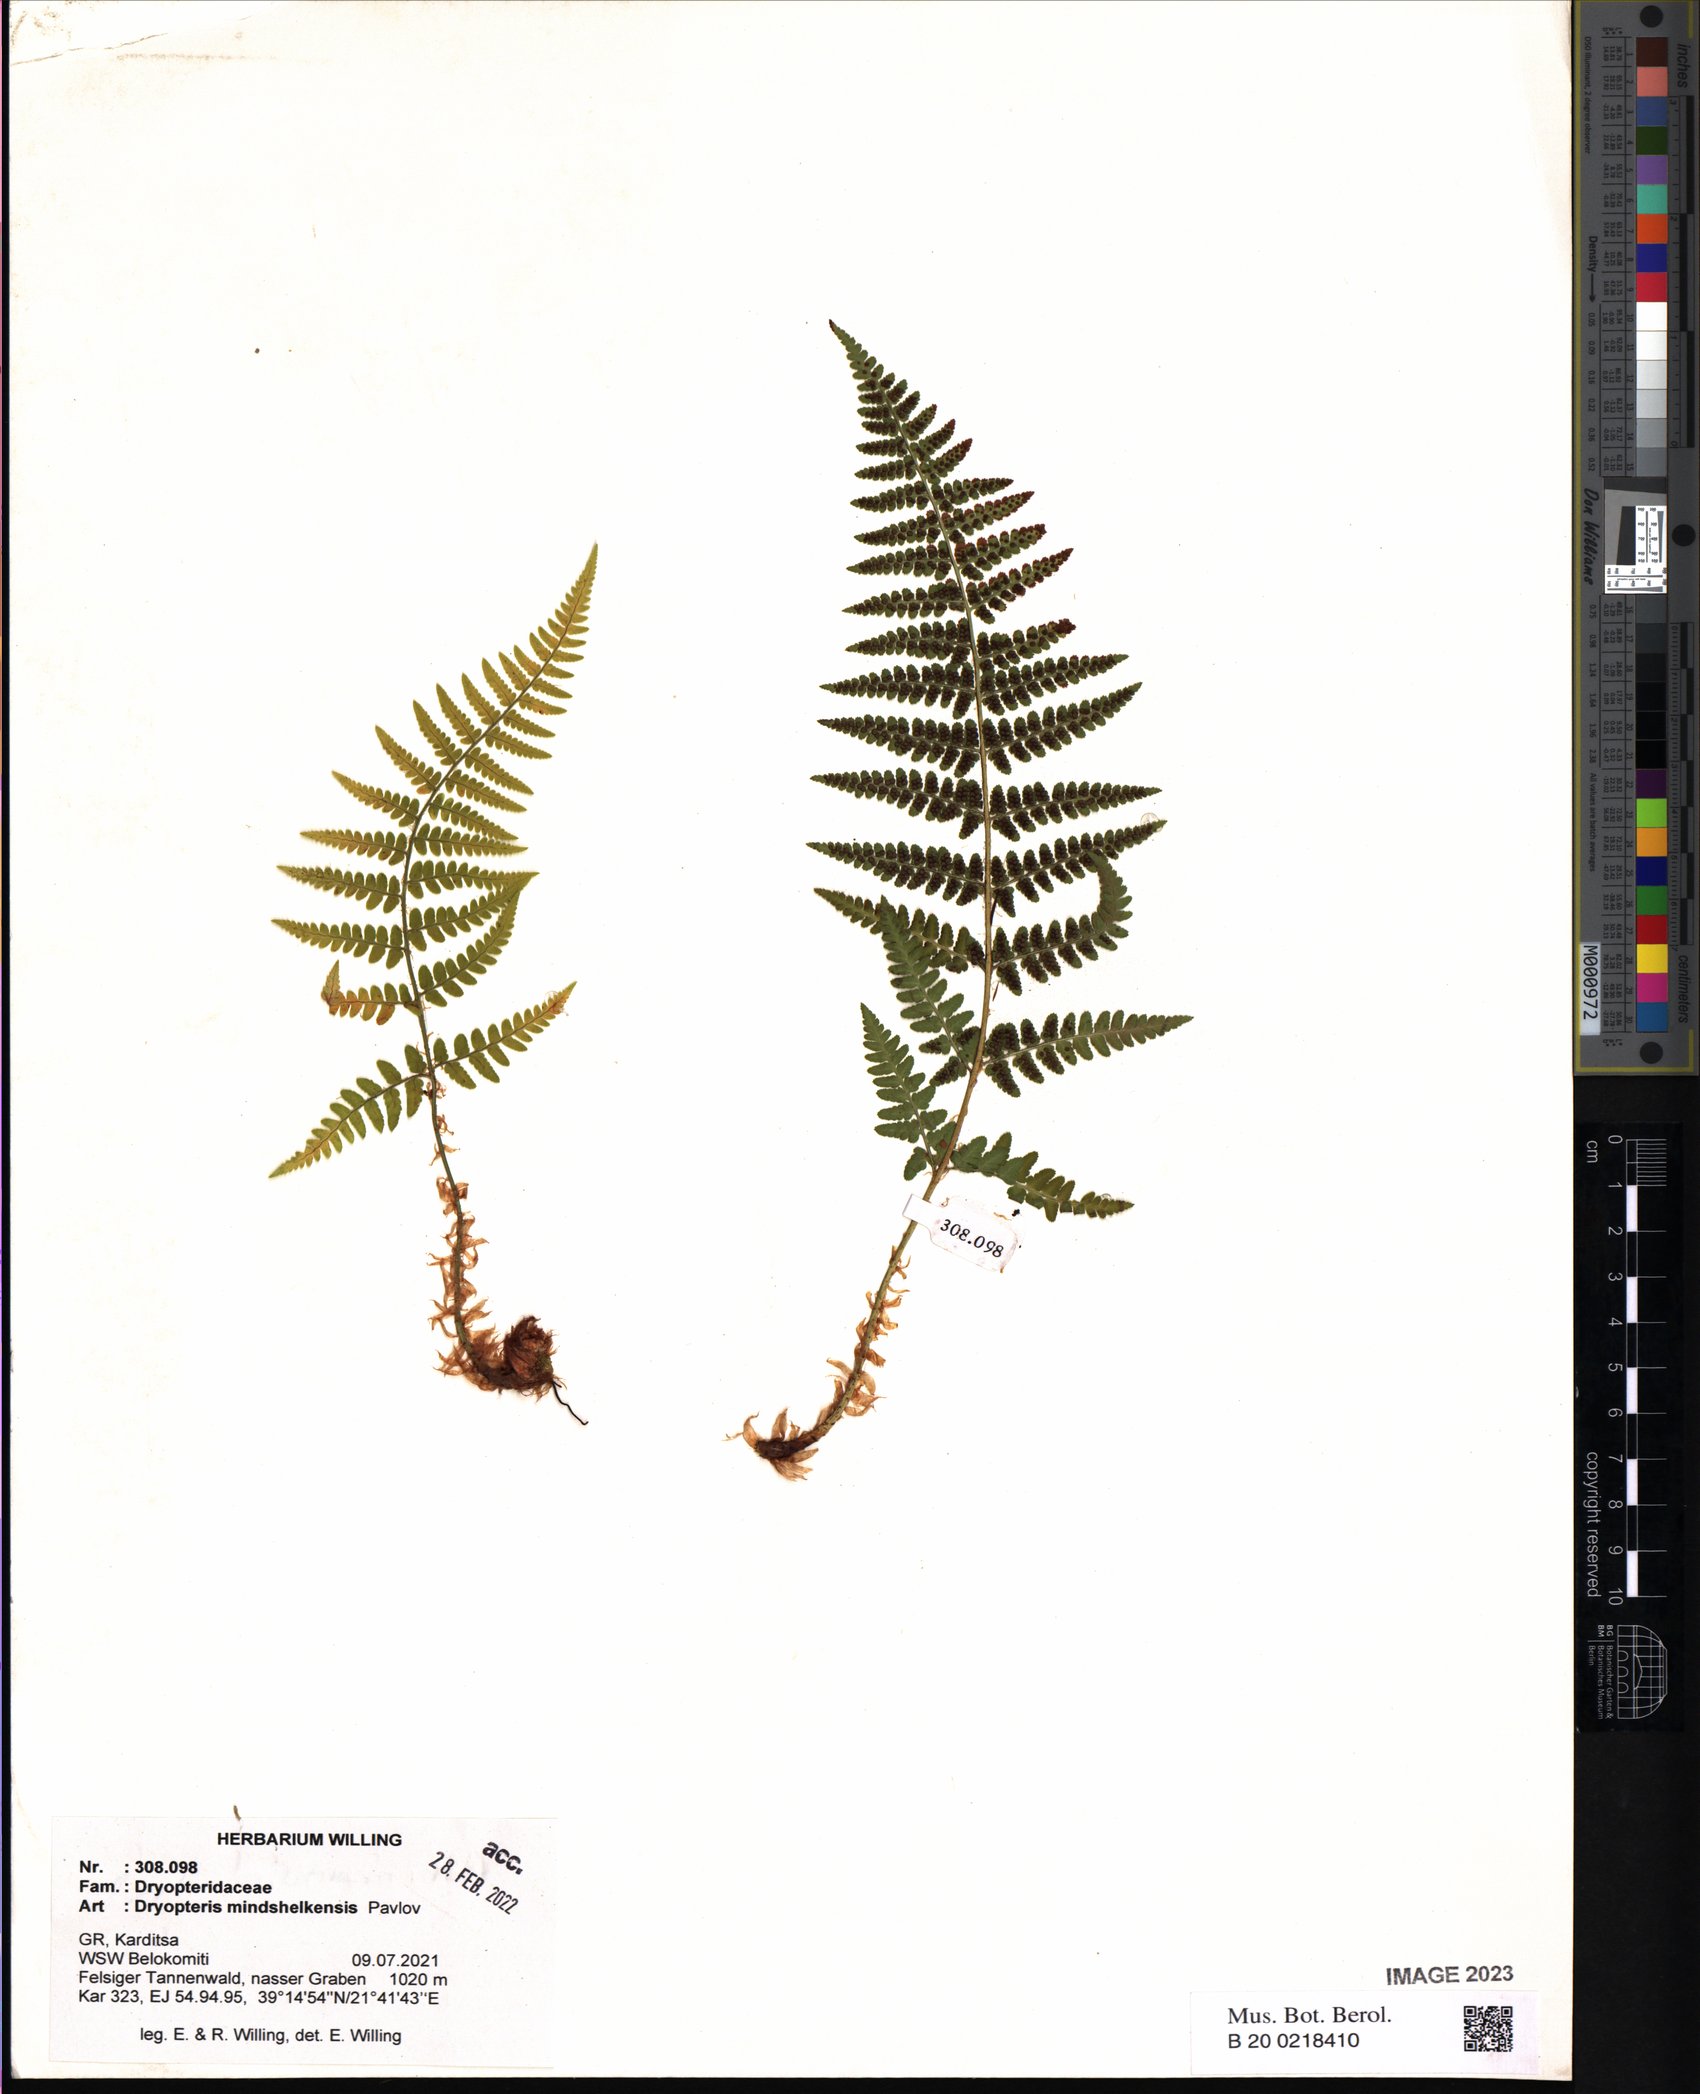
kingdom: Plantae
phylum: Tracheophyta
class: Polypodiopsida
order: Polypodiales
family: Dryopteridaceae
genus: Dryopteris
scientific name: Dryopteris mindshelkensis
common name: Limestone wood fern
